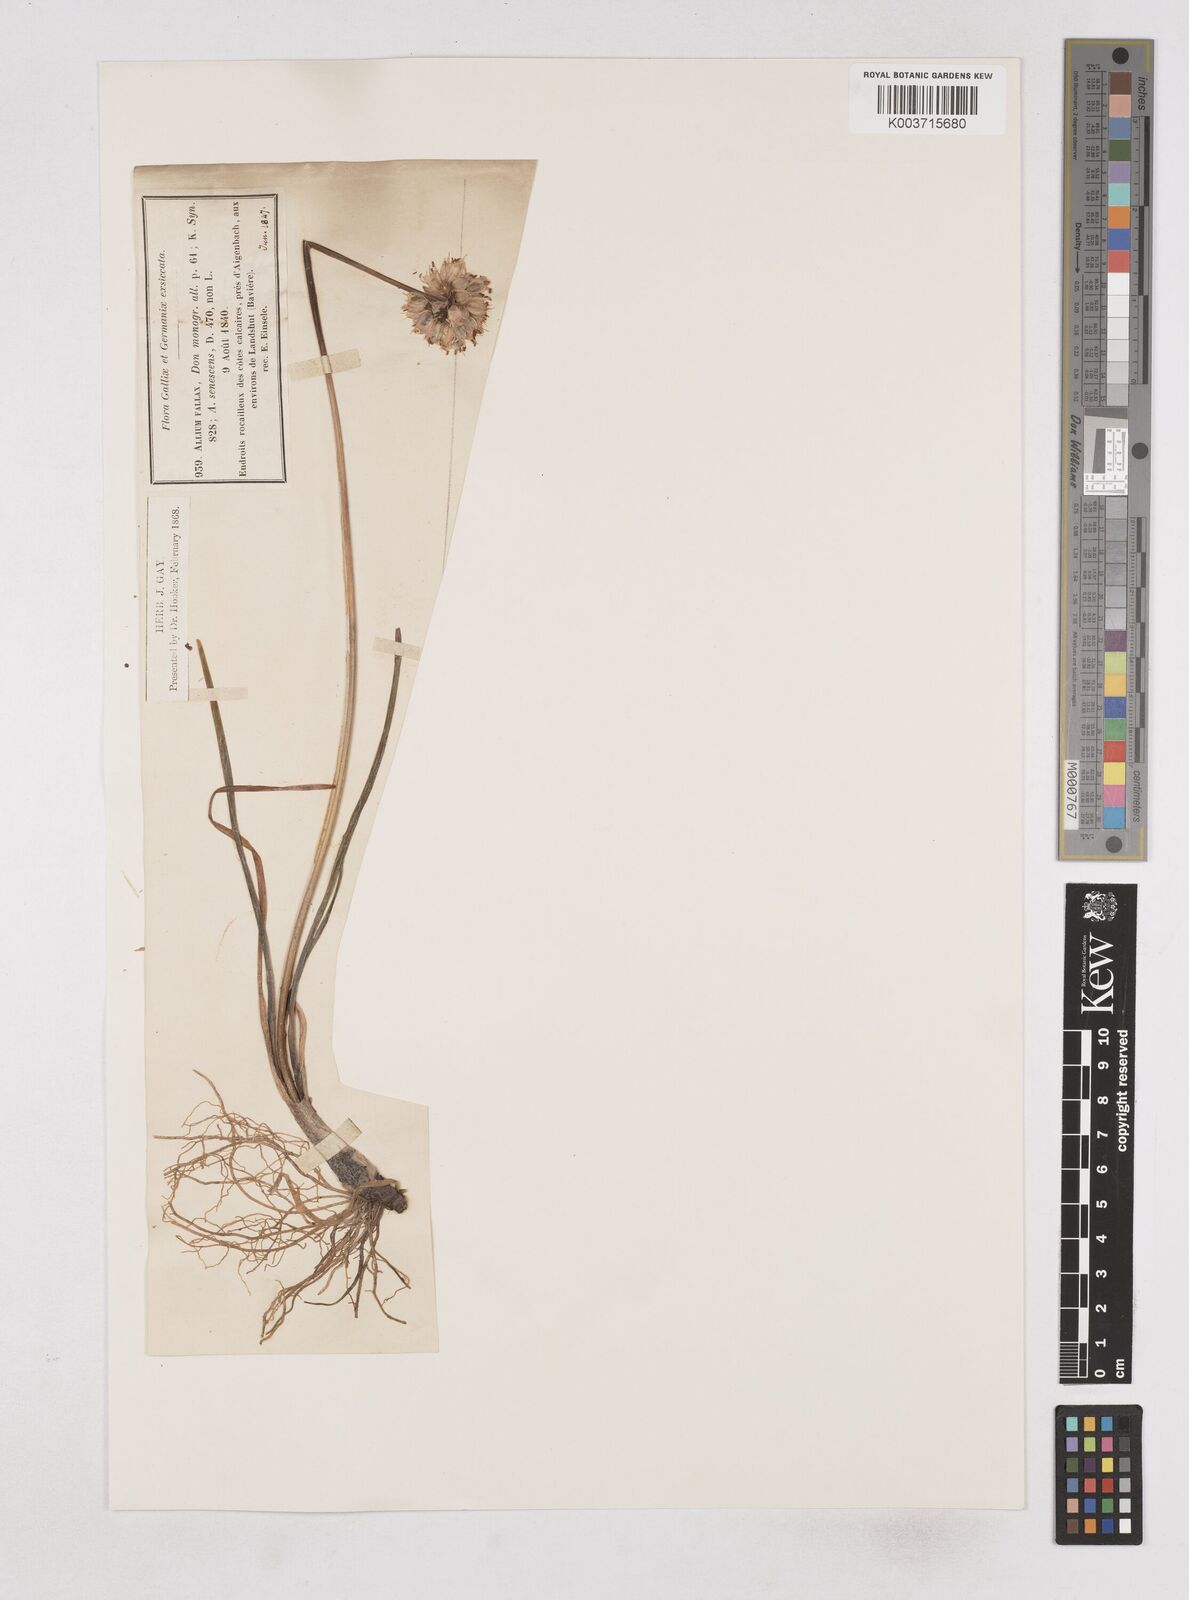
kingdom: Plantae
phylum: Tracheophyta
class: Liliopsida
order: Asparagales
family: Amaryllidaceae
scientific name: Amaryllidaceae
